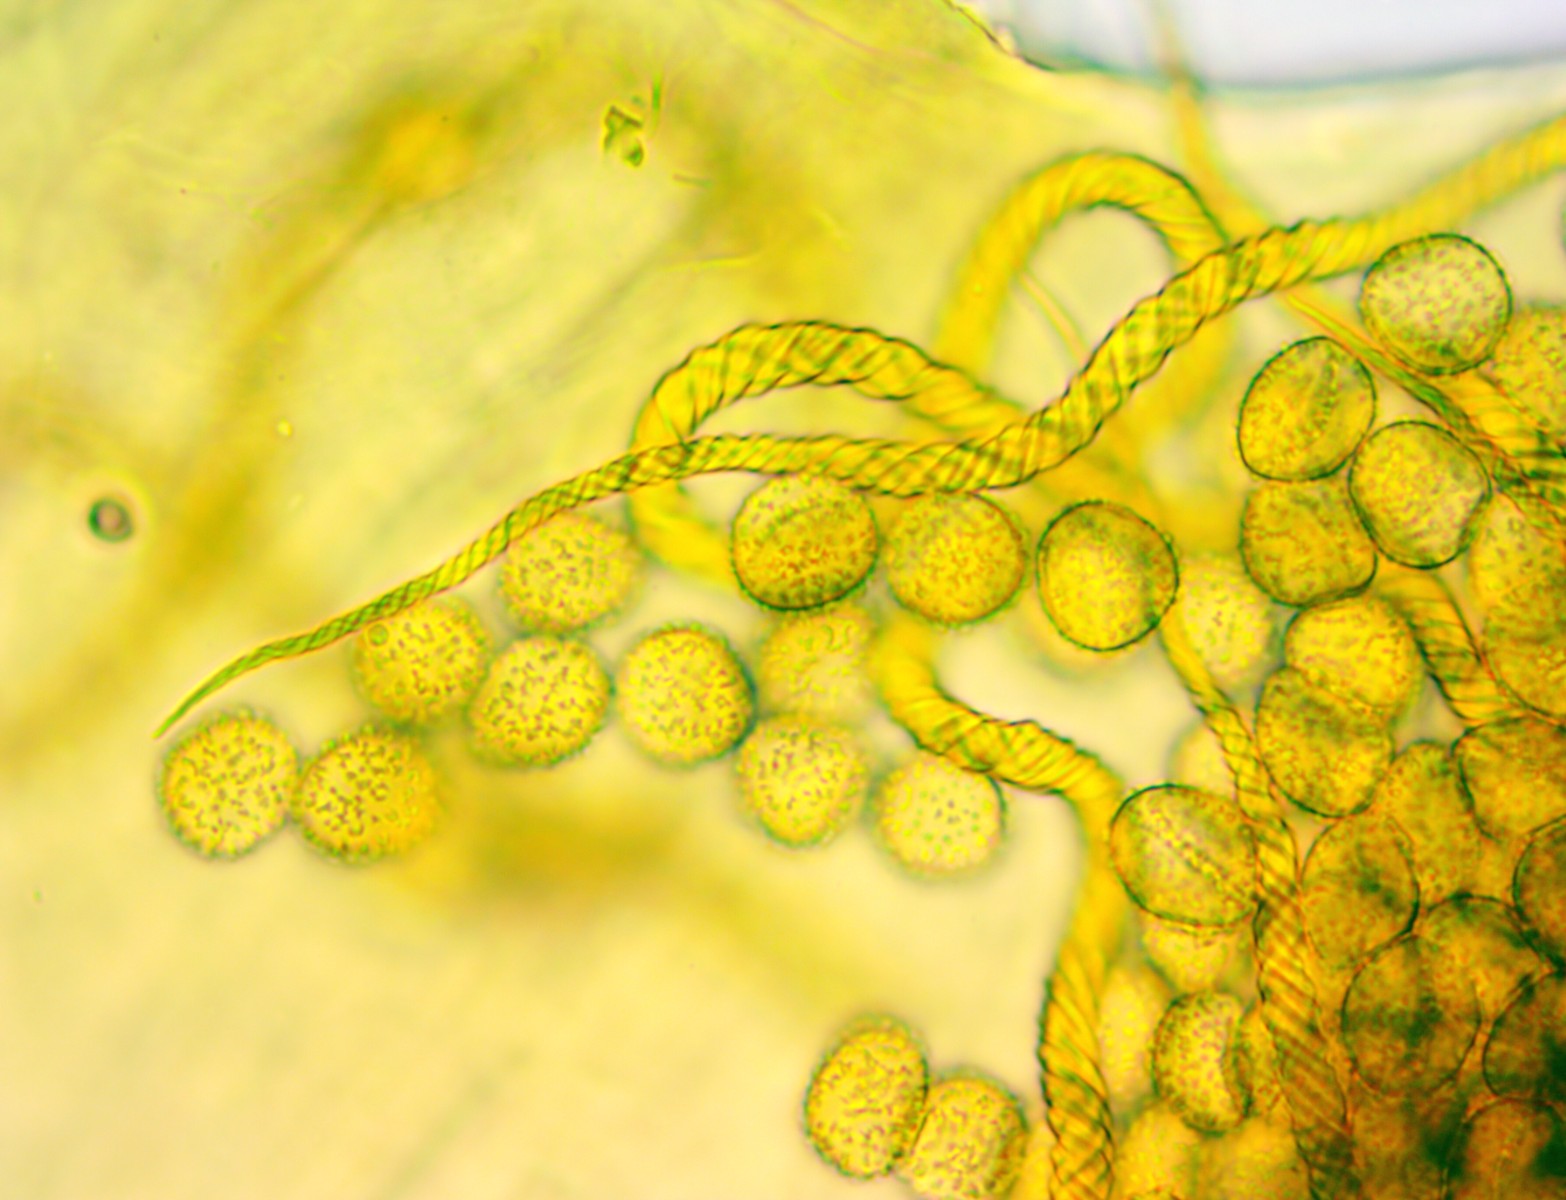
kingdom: Protozoa
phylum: Mycetozoa
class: Myxomycetes
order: Trichiales
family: Trichiaceae
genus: Trichia
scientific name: Trichia crateriformis
